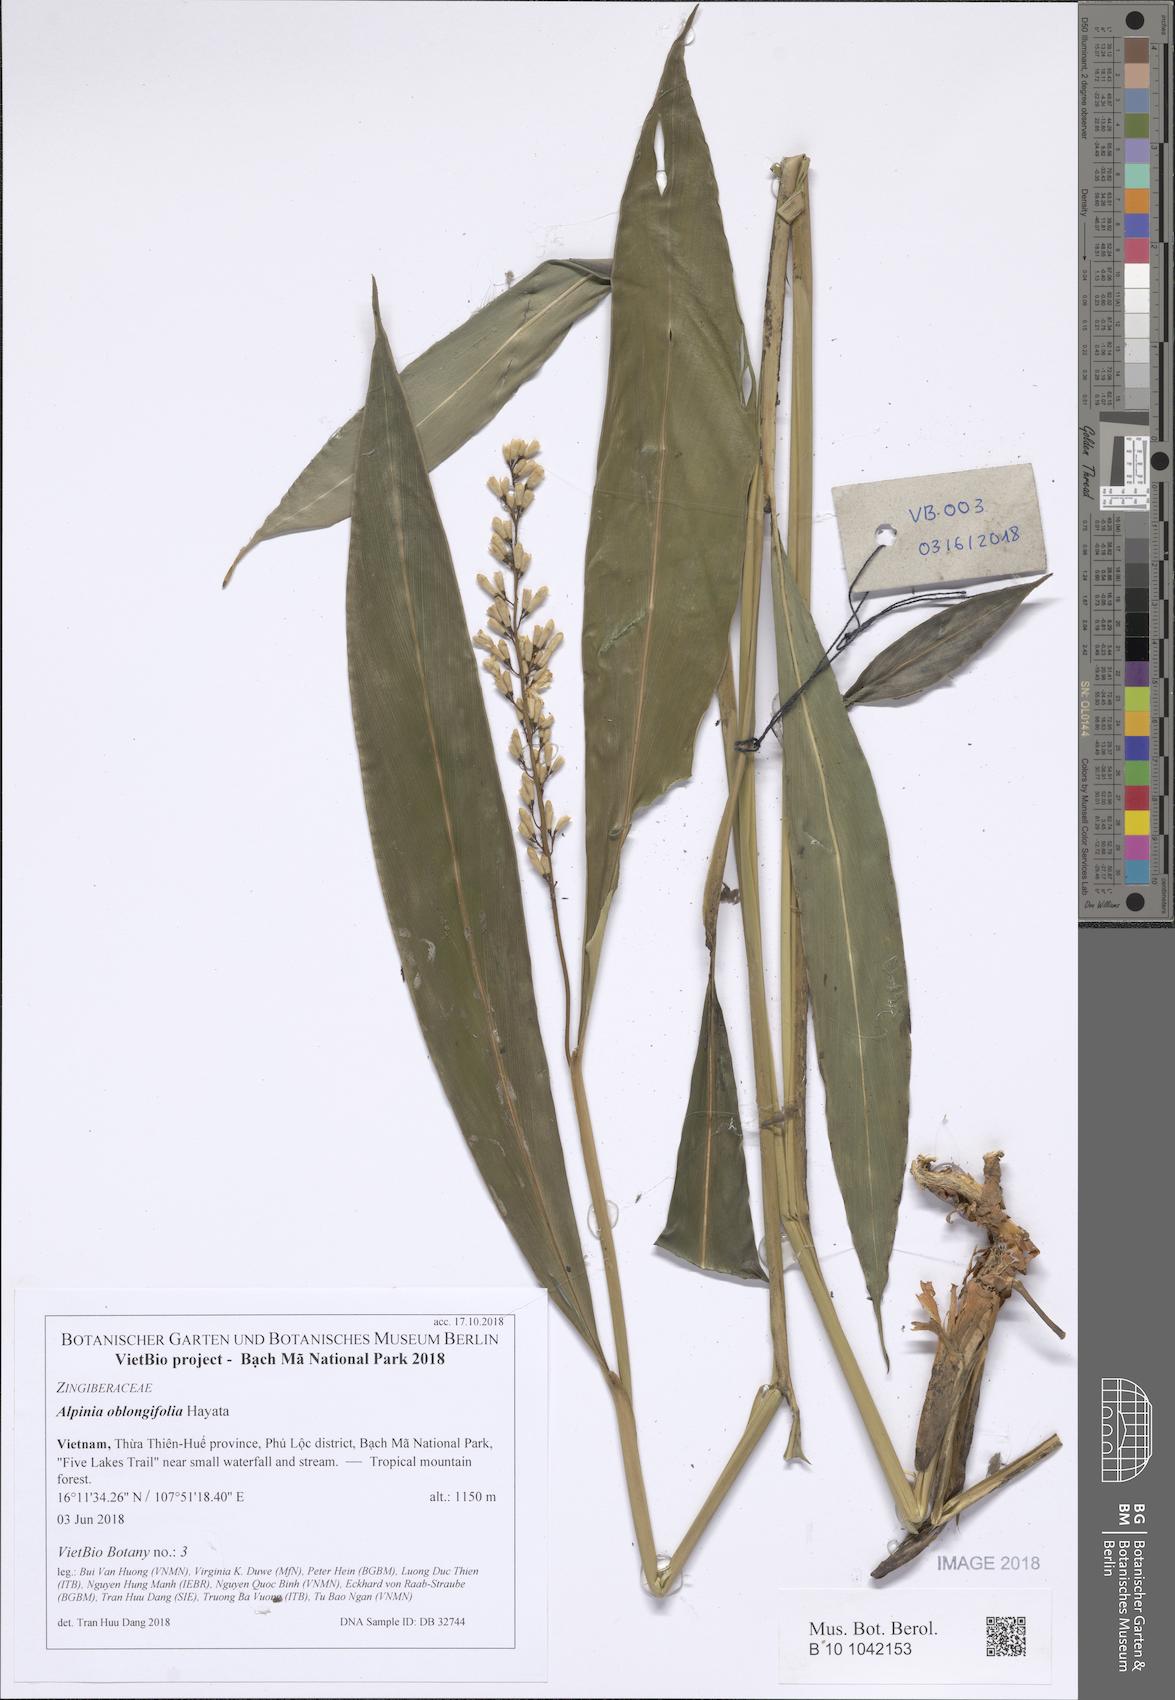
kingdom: Plantae
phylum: Tracheophyta
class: Liliopsida
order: Zingiberales
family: Zingiberaceae
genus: Alpinia
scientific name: Alpinia oblongifolia
